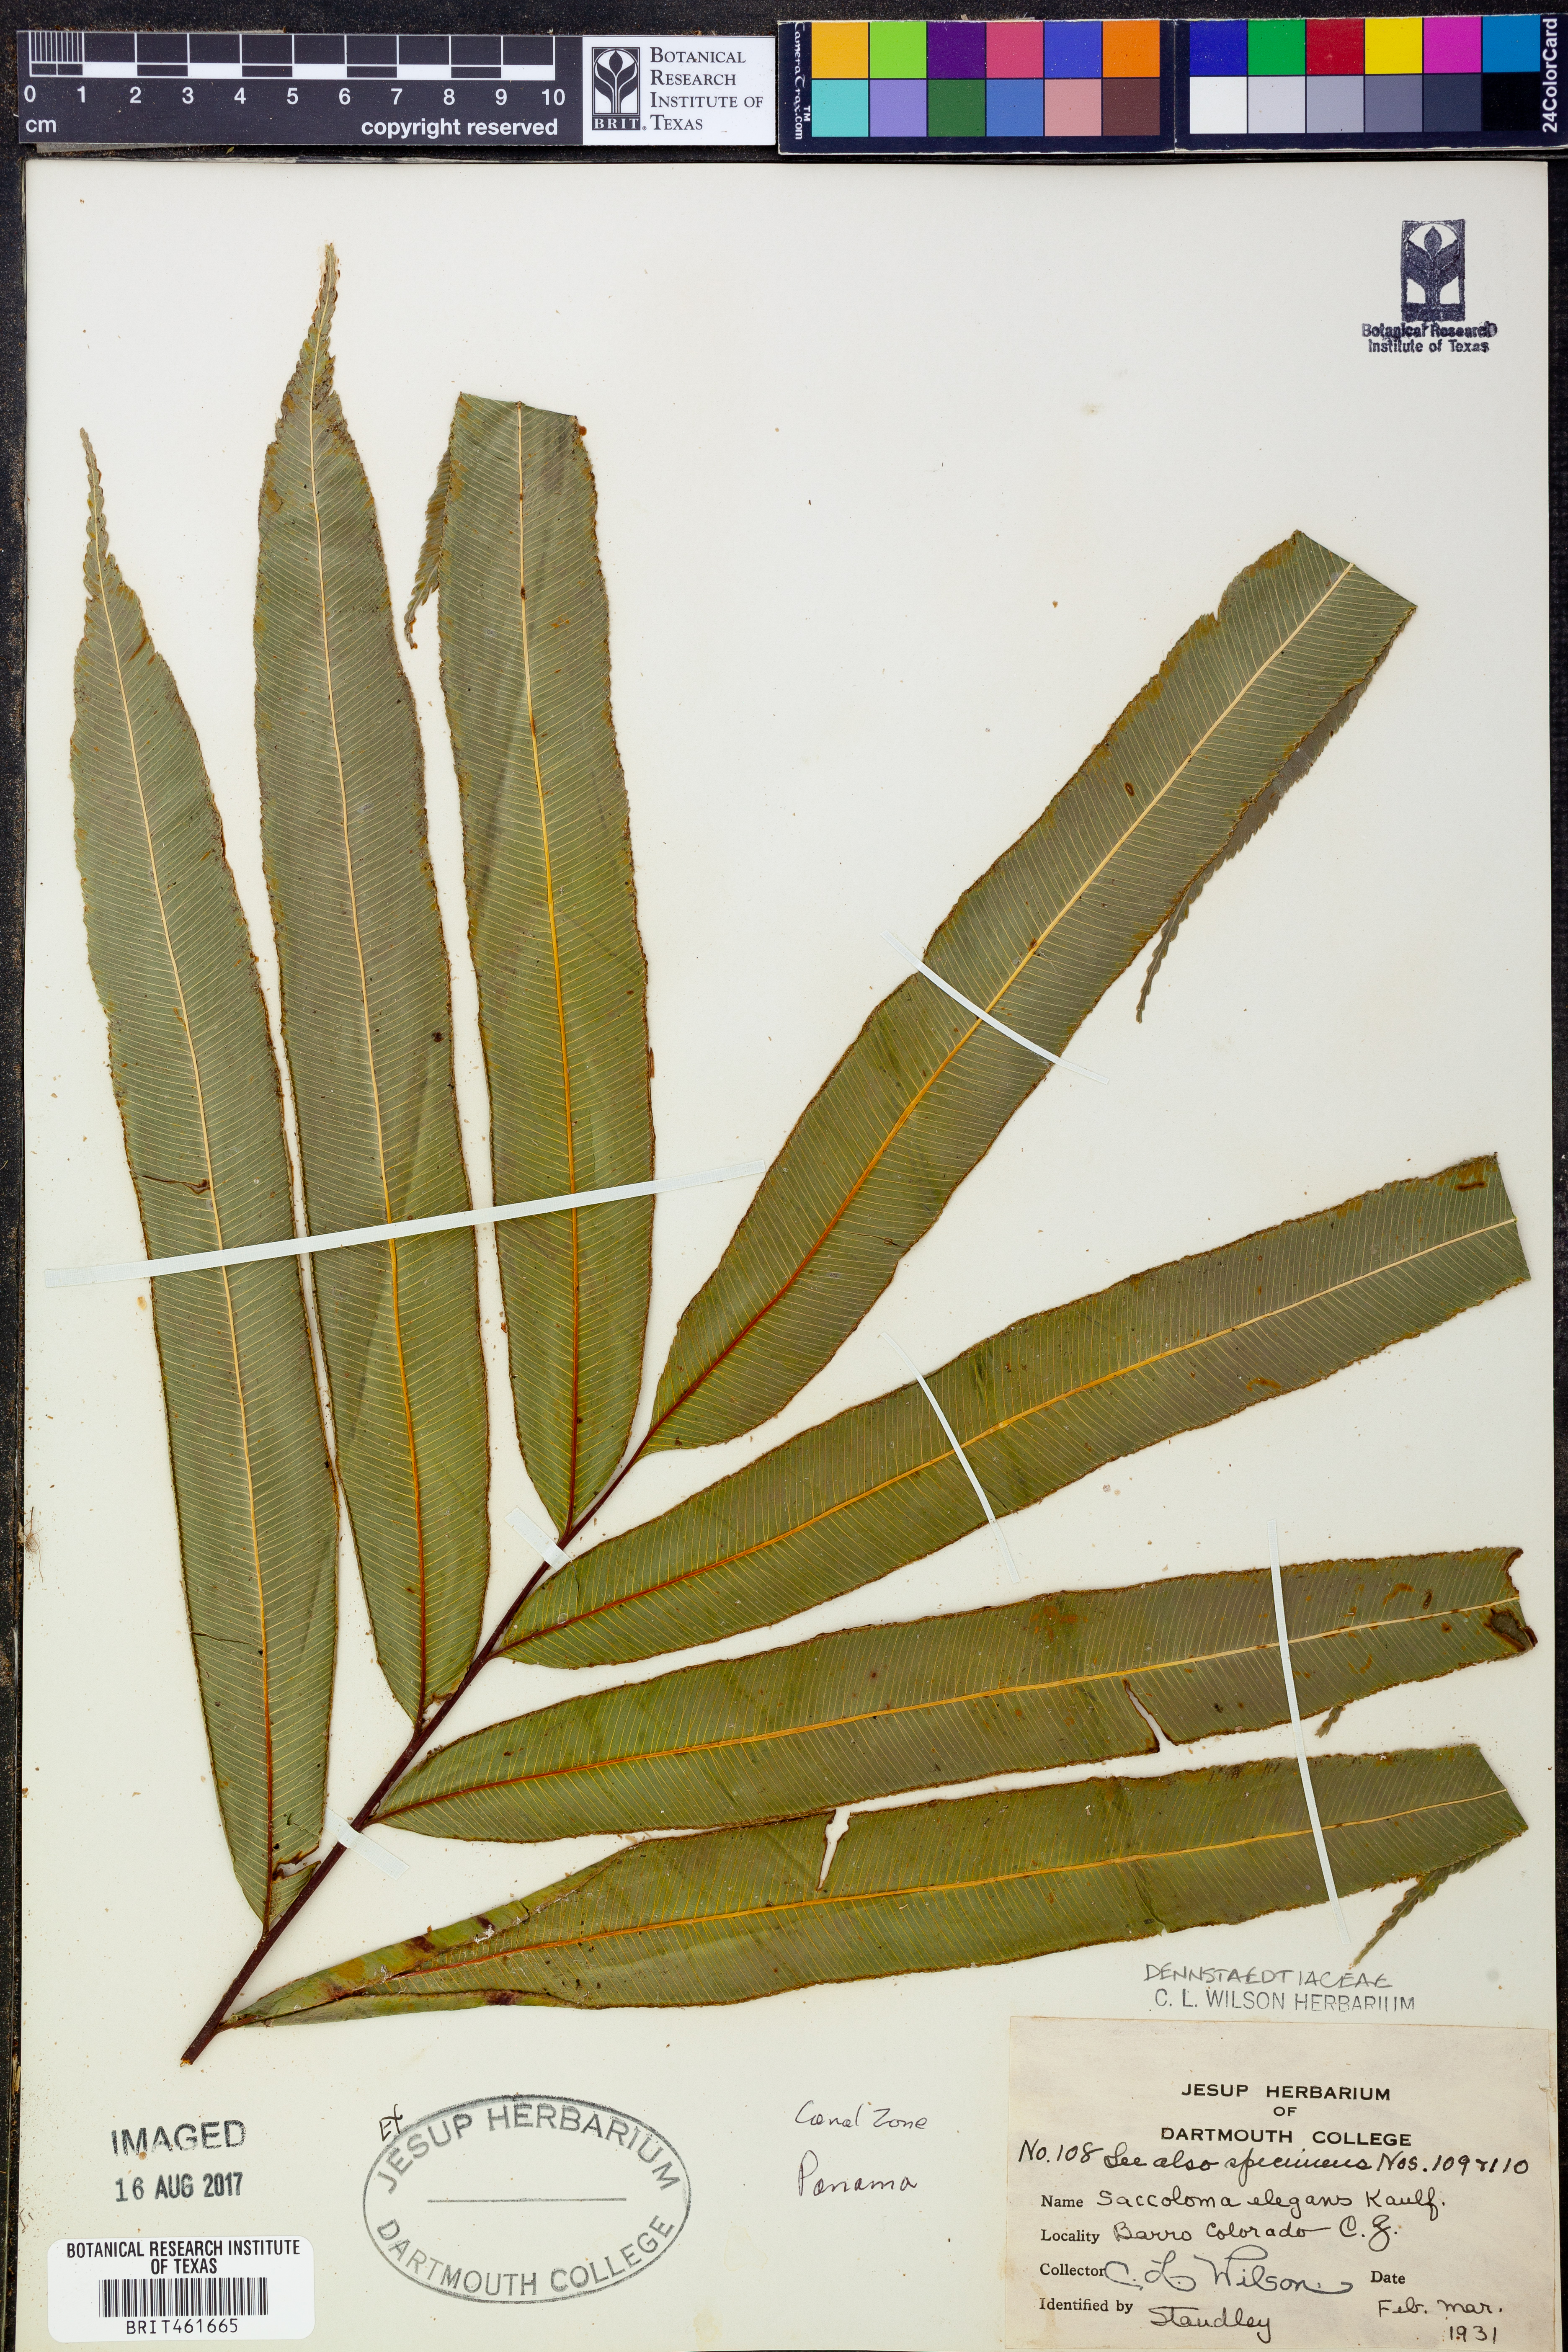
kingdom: Plantae
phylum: Tracheophyta
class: Polypodiopsida
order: Polypodiales
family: Saccolomataceae
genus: Saccoloma
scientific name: Saccoloma elegans
